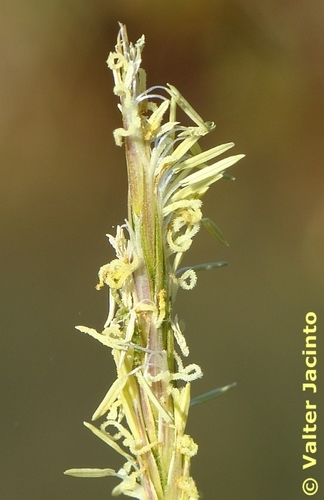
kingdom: Plantae
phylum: Tracheophyta
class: Liliopsida
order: Poales
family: Poaceae
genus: Sporobolus
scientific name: Sporobolus maritimus
